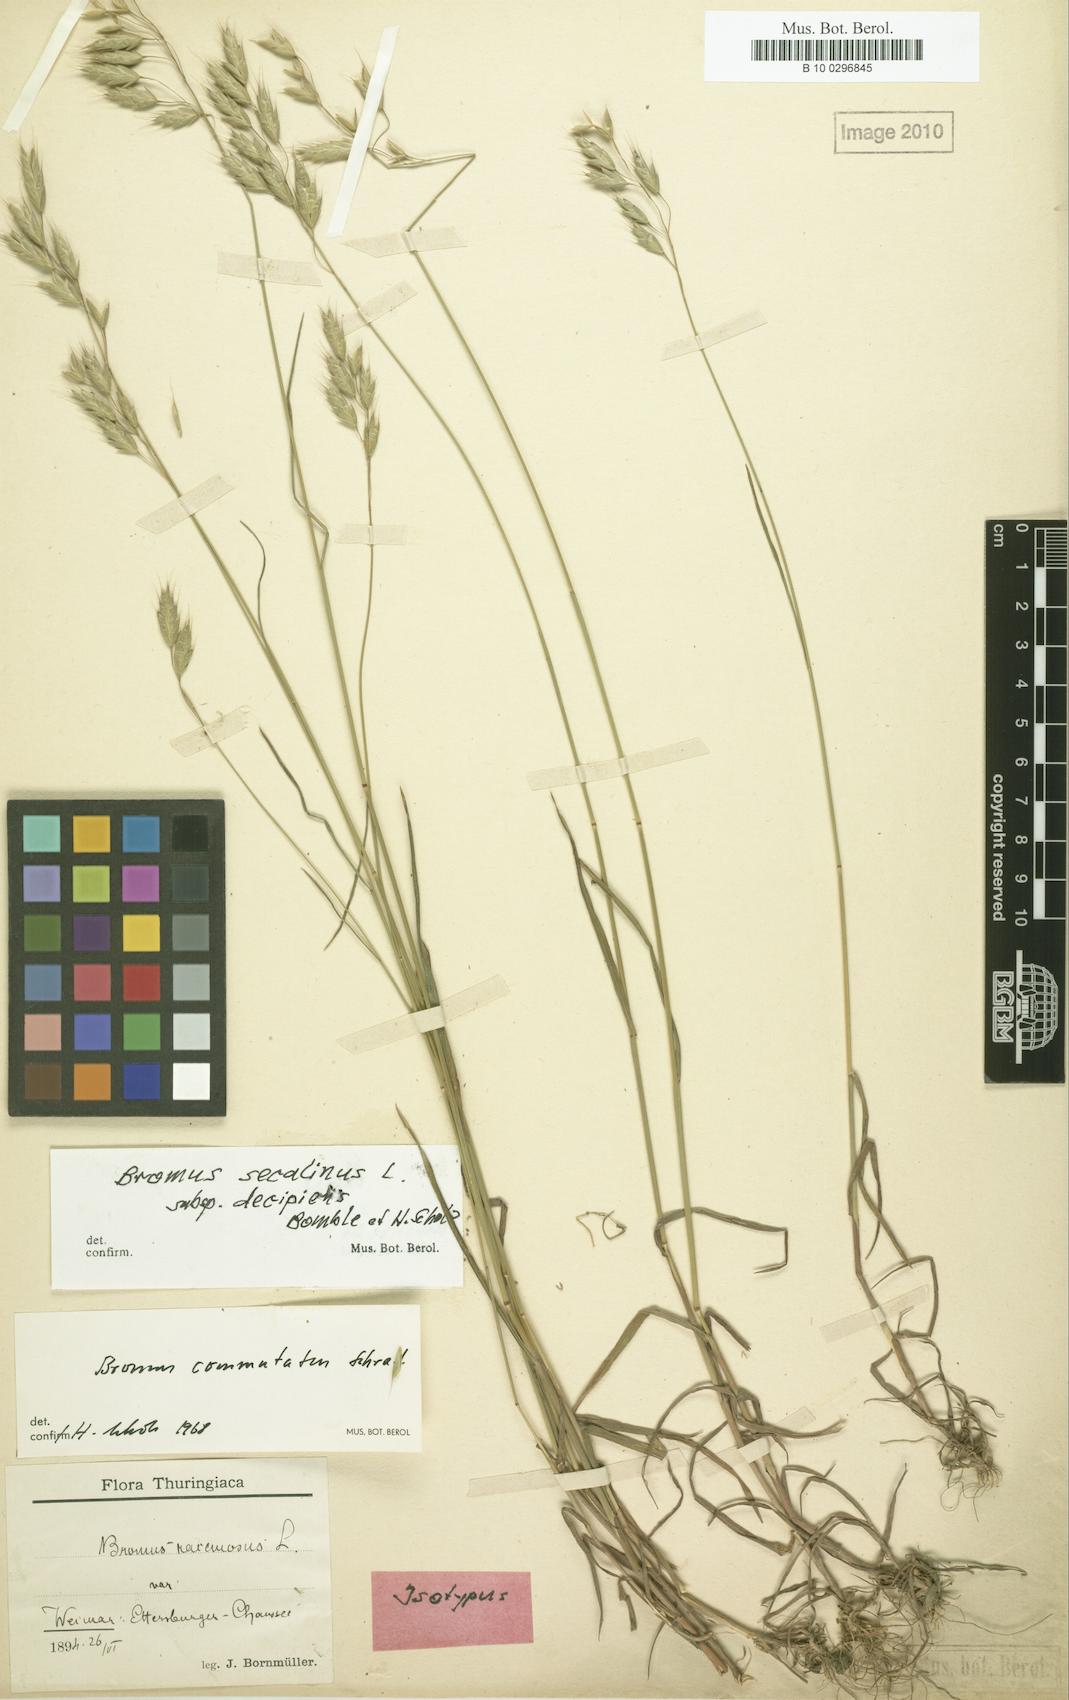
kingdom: Plantae
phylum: Tracheophyta
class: Liliopsida
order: Poales
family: Poaceae
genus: Bromus
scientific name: Bromus commutatus
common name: Meadow brome
